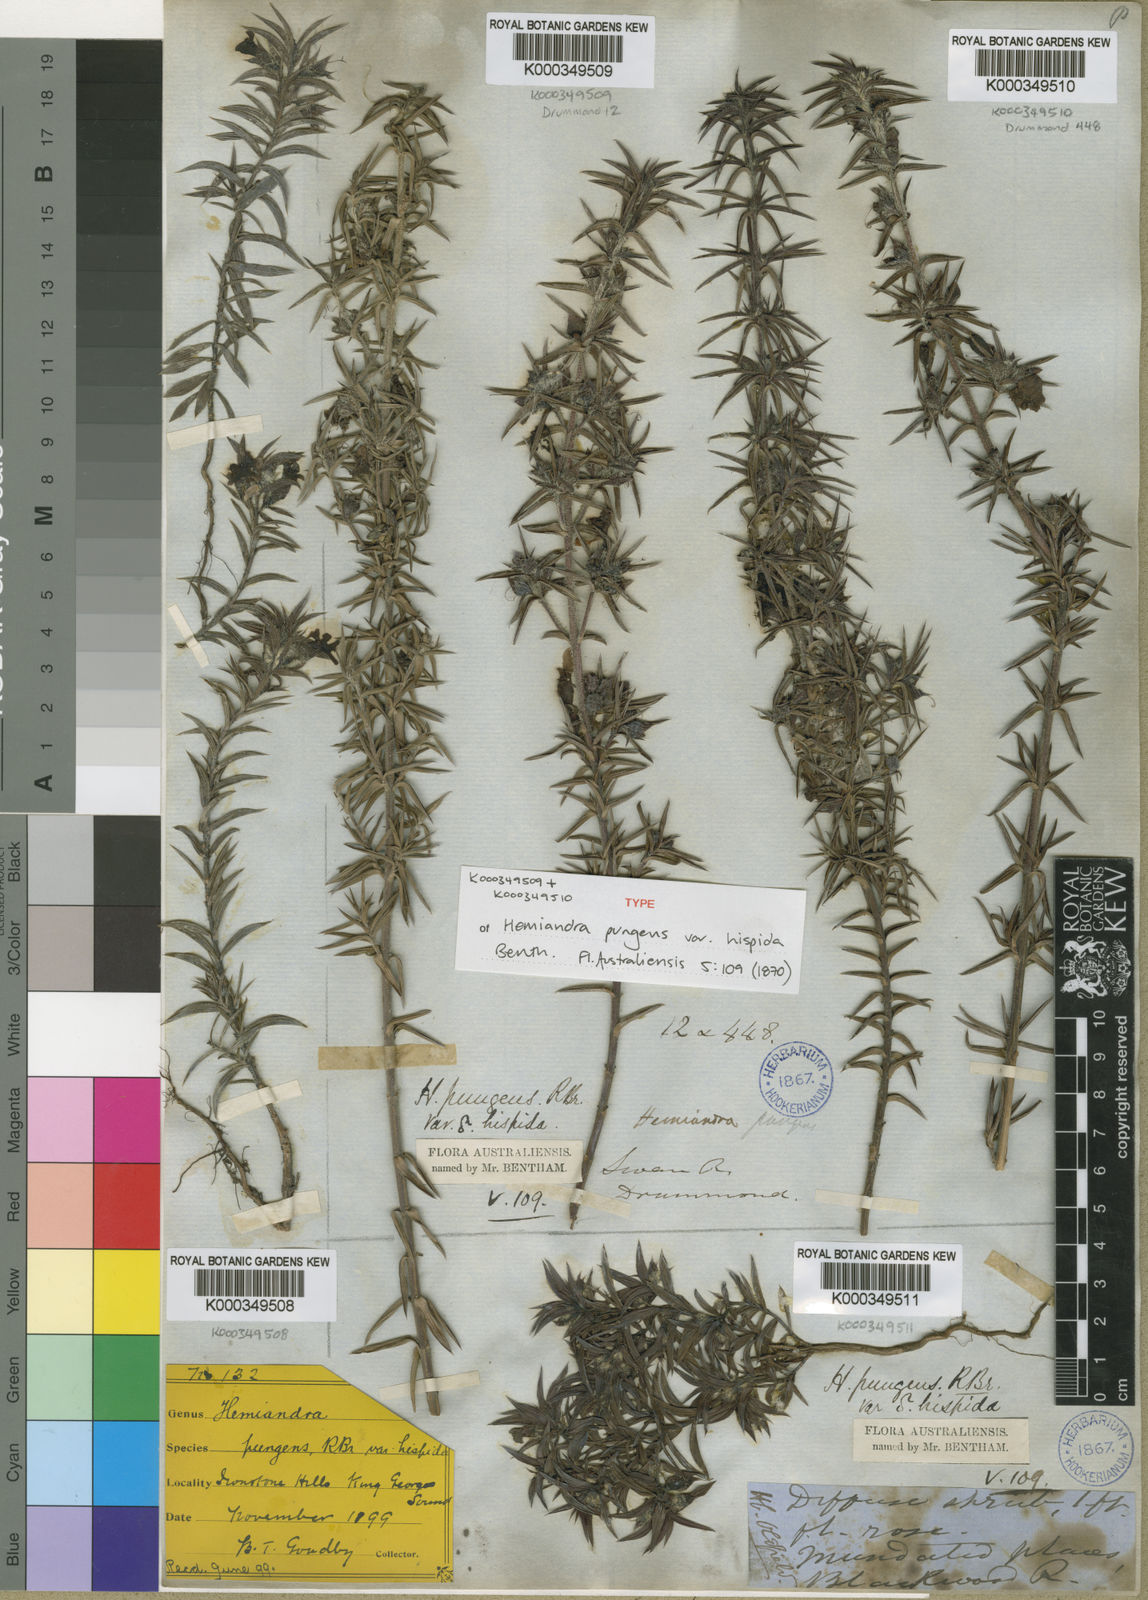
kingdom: Plantae
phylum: Tracheophyta
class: Magnoliopsida
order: Lamiales
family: Lamiaceae
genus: Hemiandra
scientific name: Hemiandra pungens
